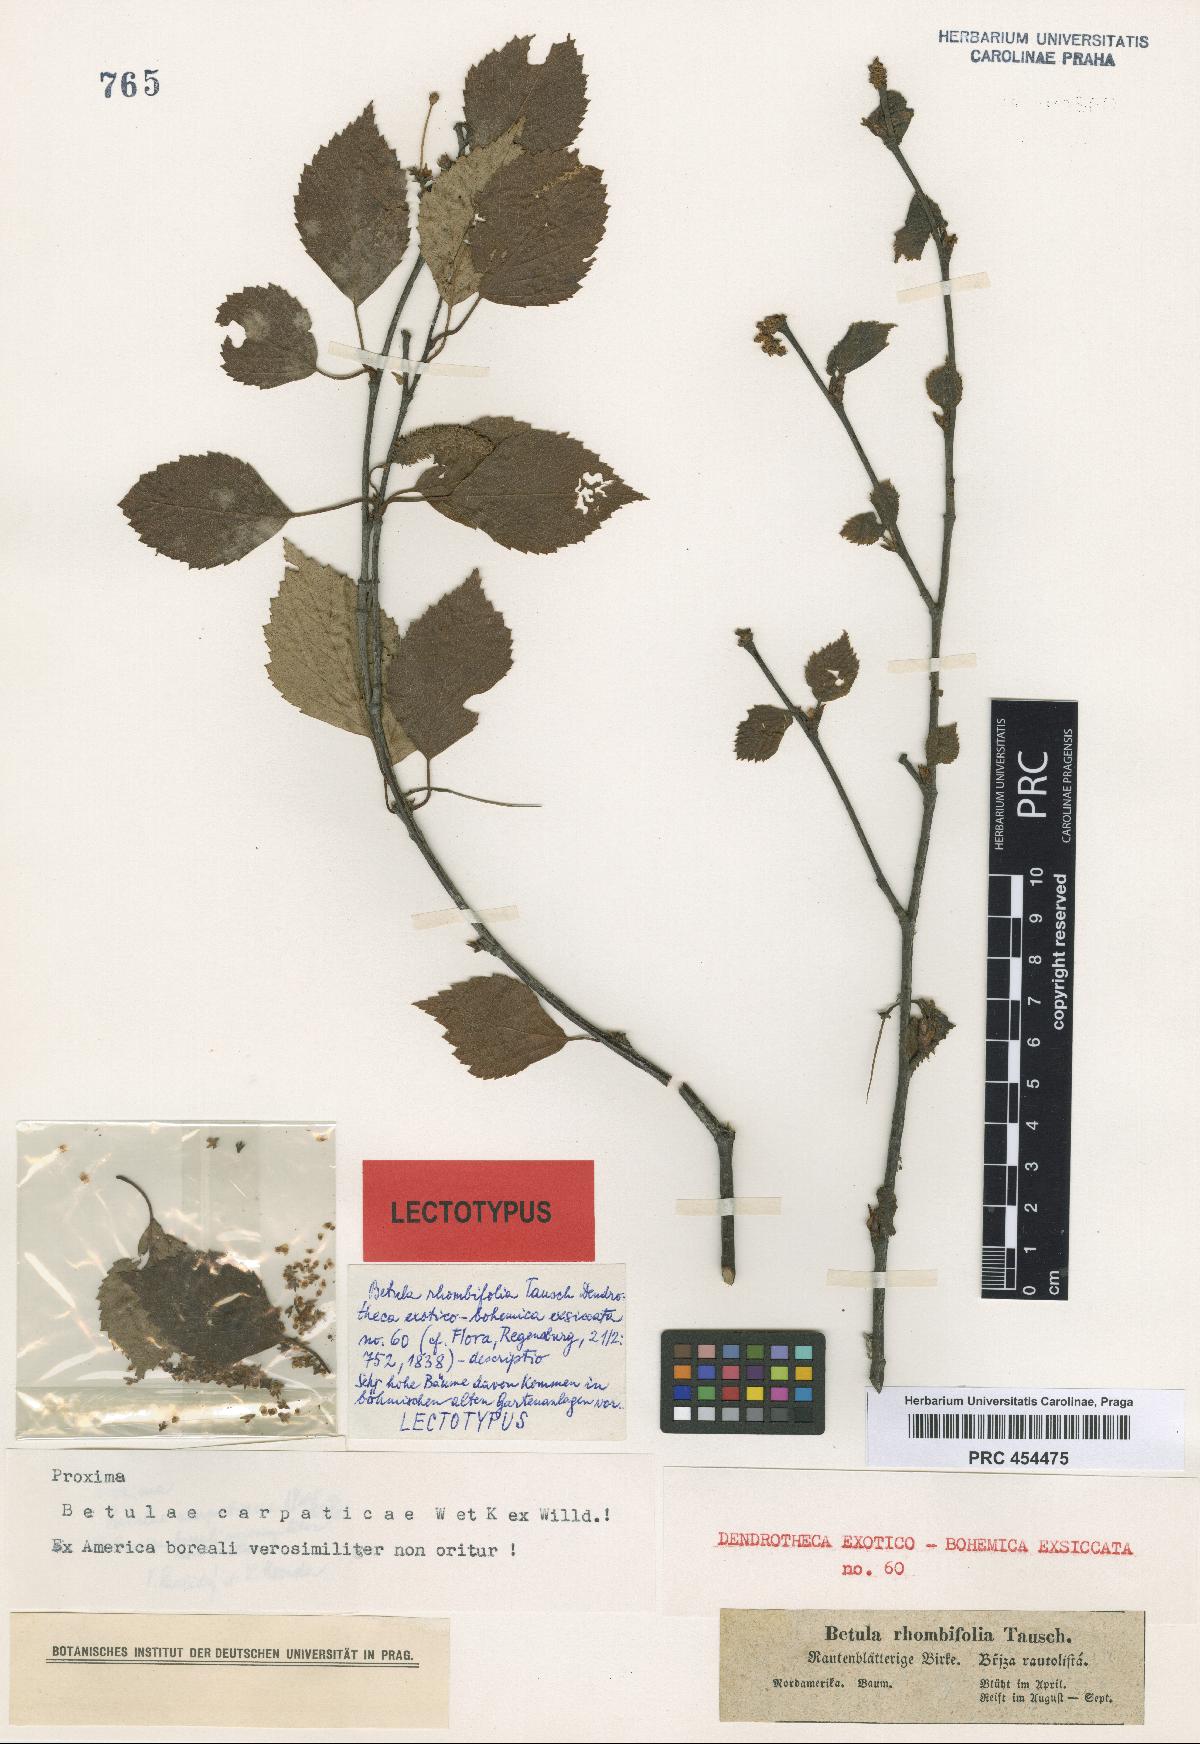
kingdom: Plantae
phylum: Tracheophyta
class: Magnoliopsida
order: Fagales
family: Betulaceae
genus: Betula
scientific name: Betula pubescens
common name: Downy birch
